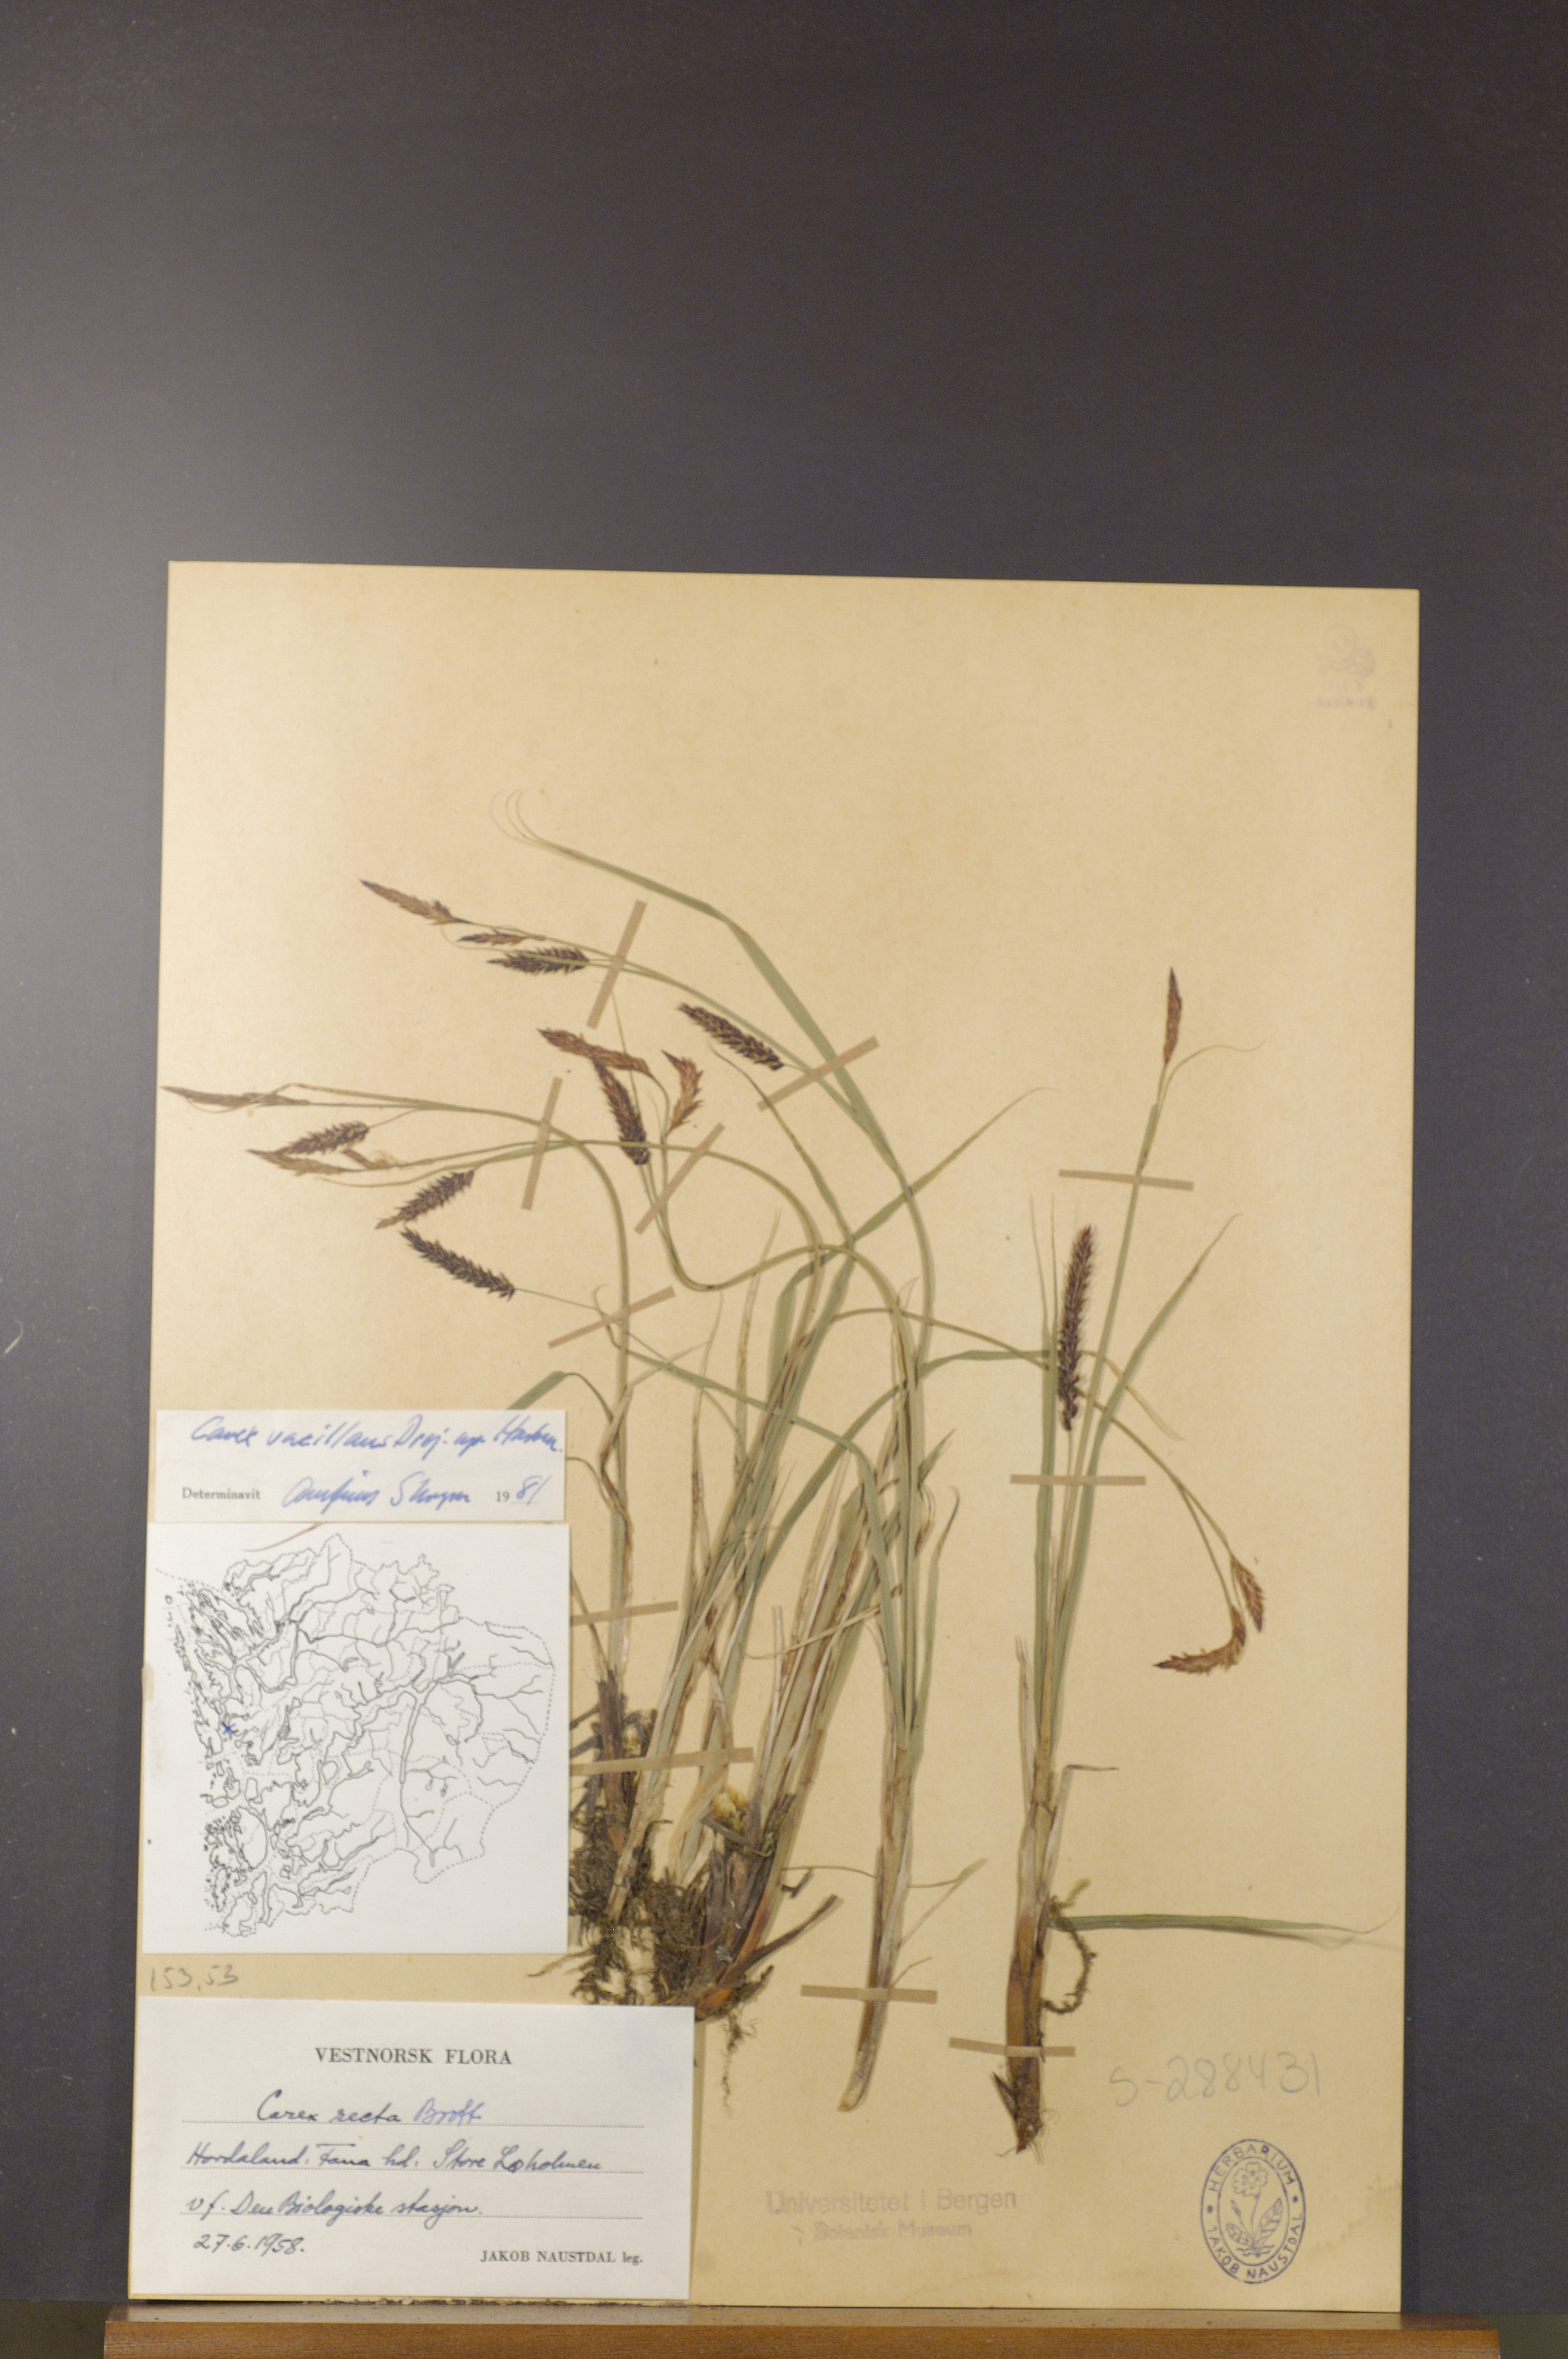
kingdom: Plantae
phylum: Tracheophyta
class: Liliopsida
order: Poales
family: Cyperaceae
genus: Carex
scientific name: Carex vacillans
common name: Sedge
